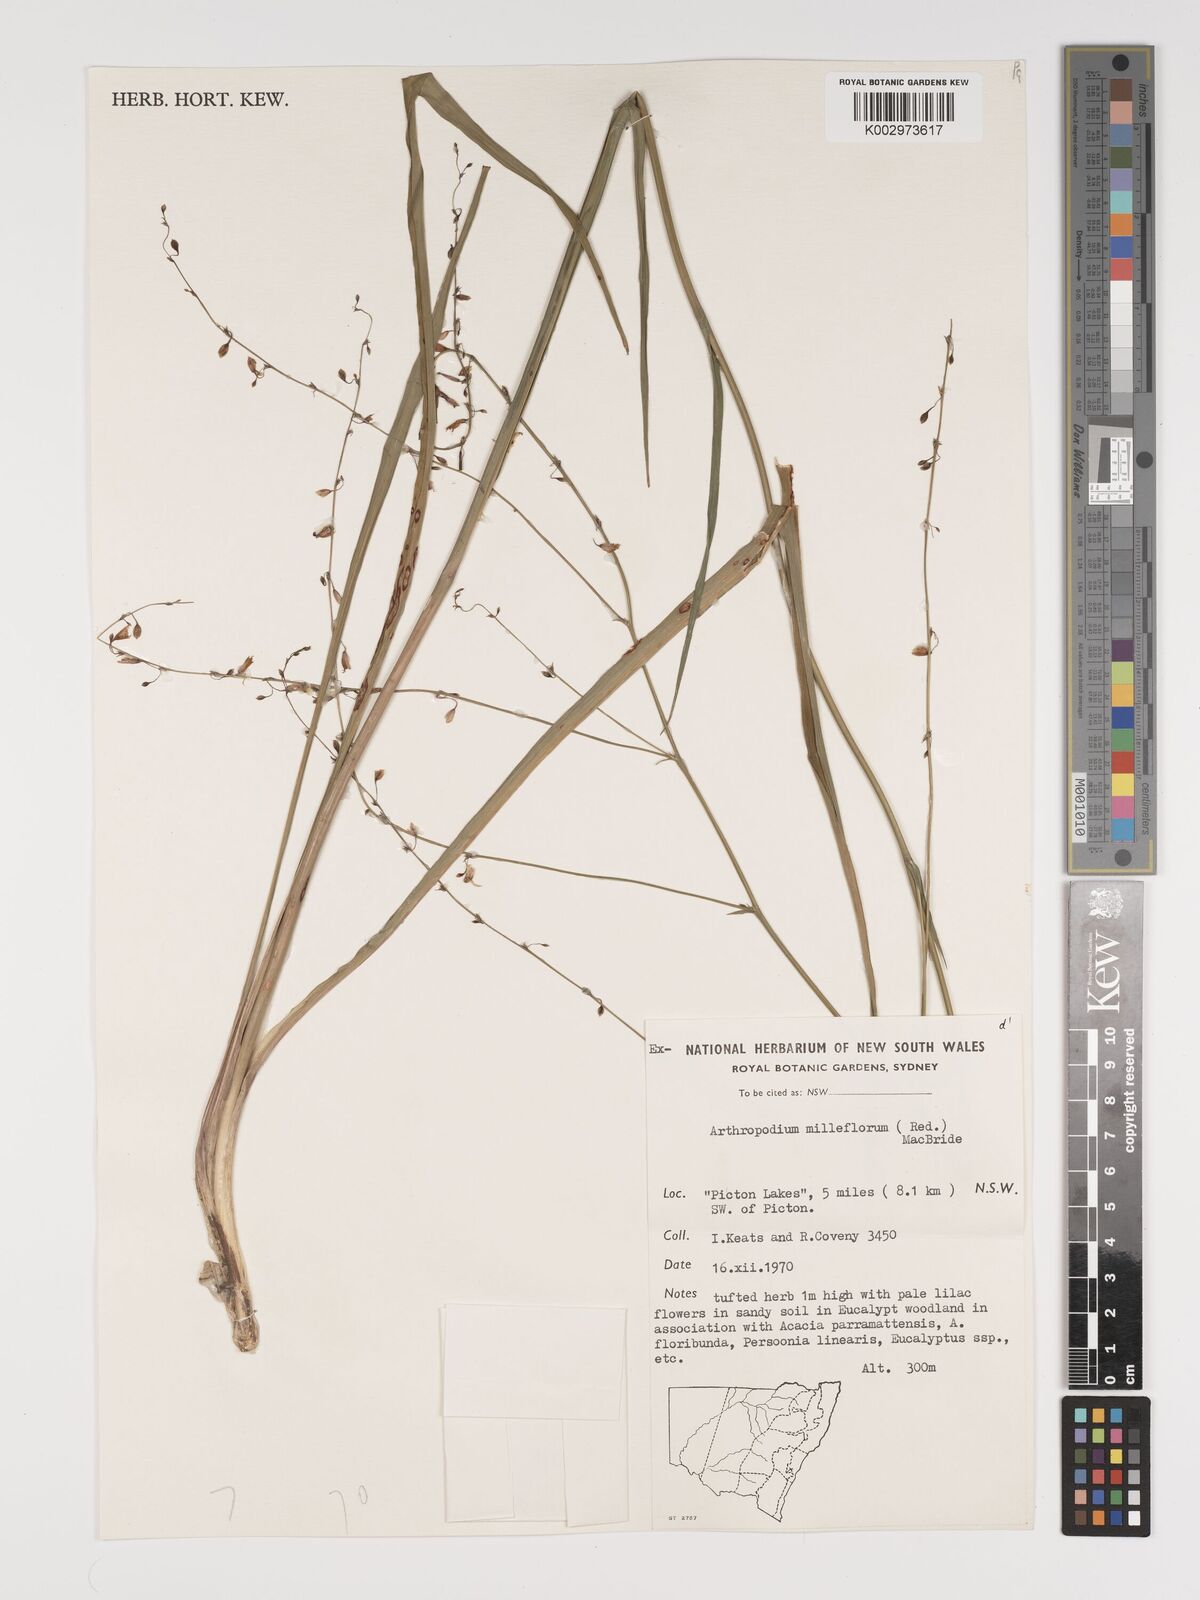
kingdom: Plantae
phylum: Tracheophyta
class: Liliopsida
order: Asparagales
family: Asparagaceae
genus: Arthropodium
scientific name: Arthropodium milleflorum
